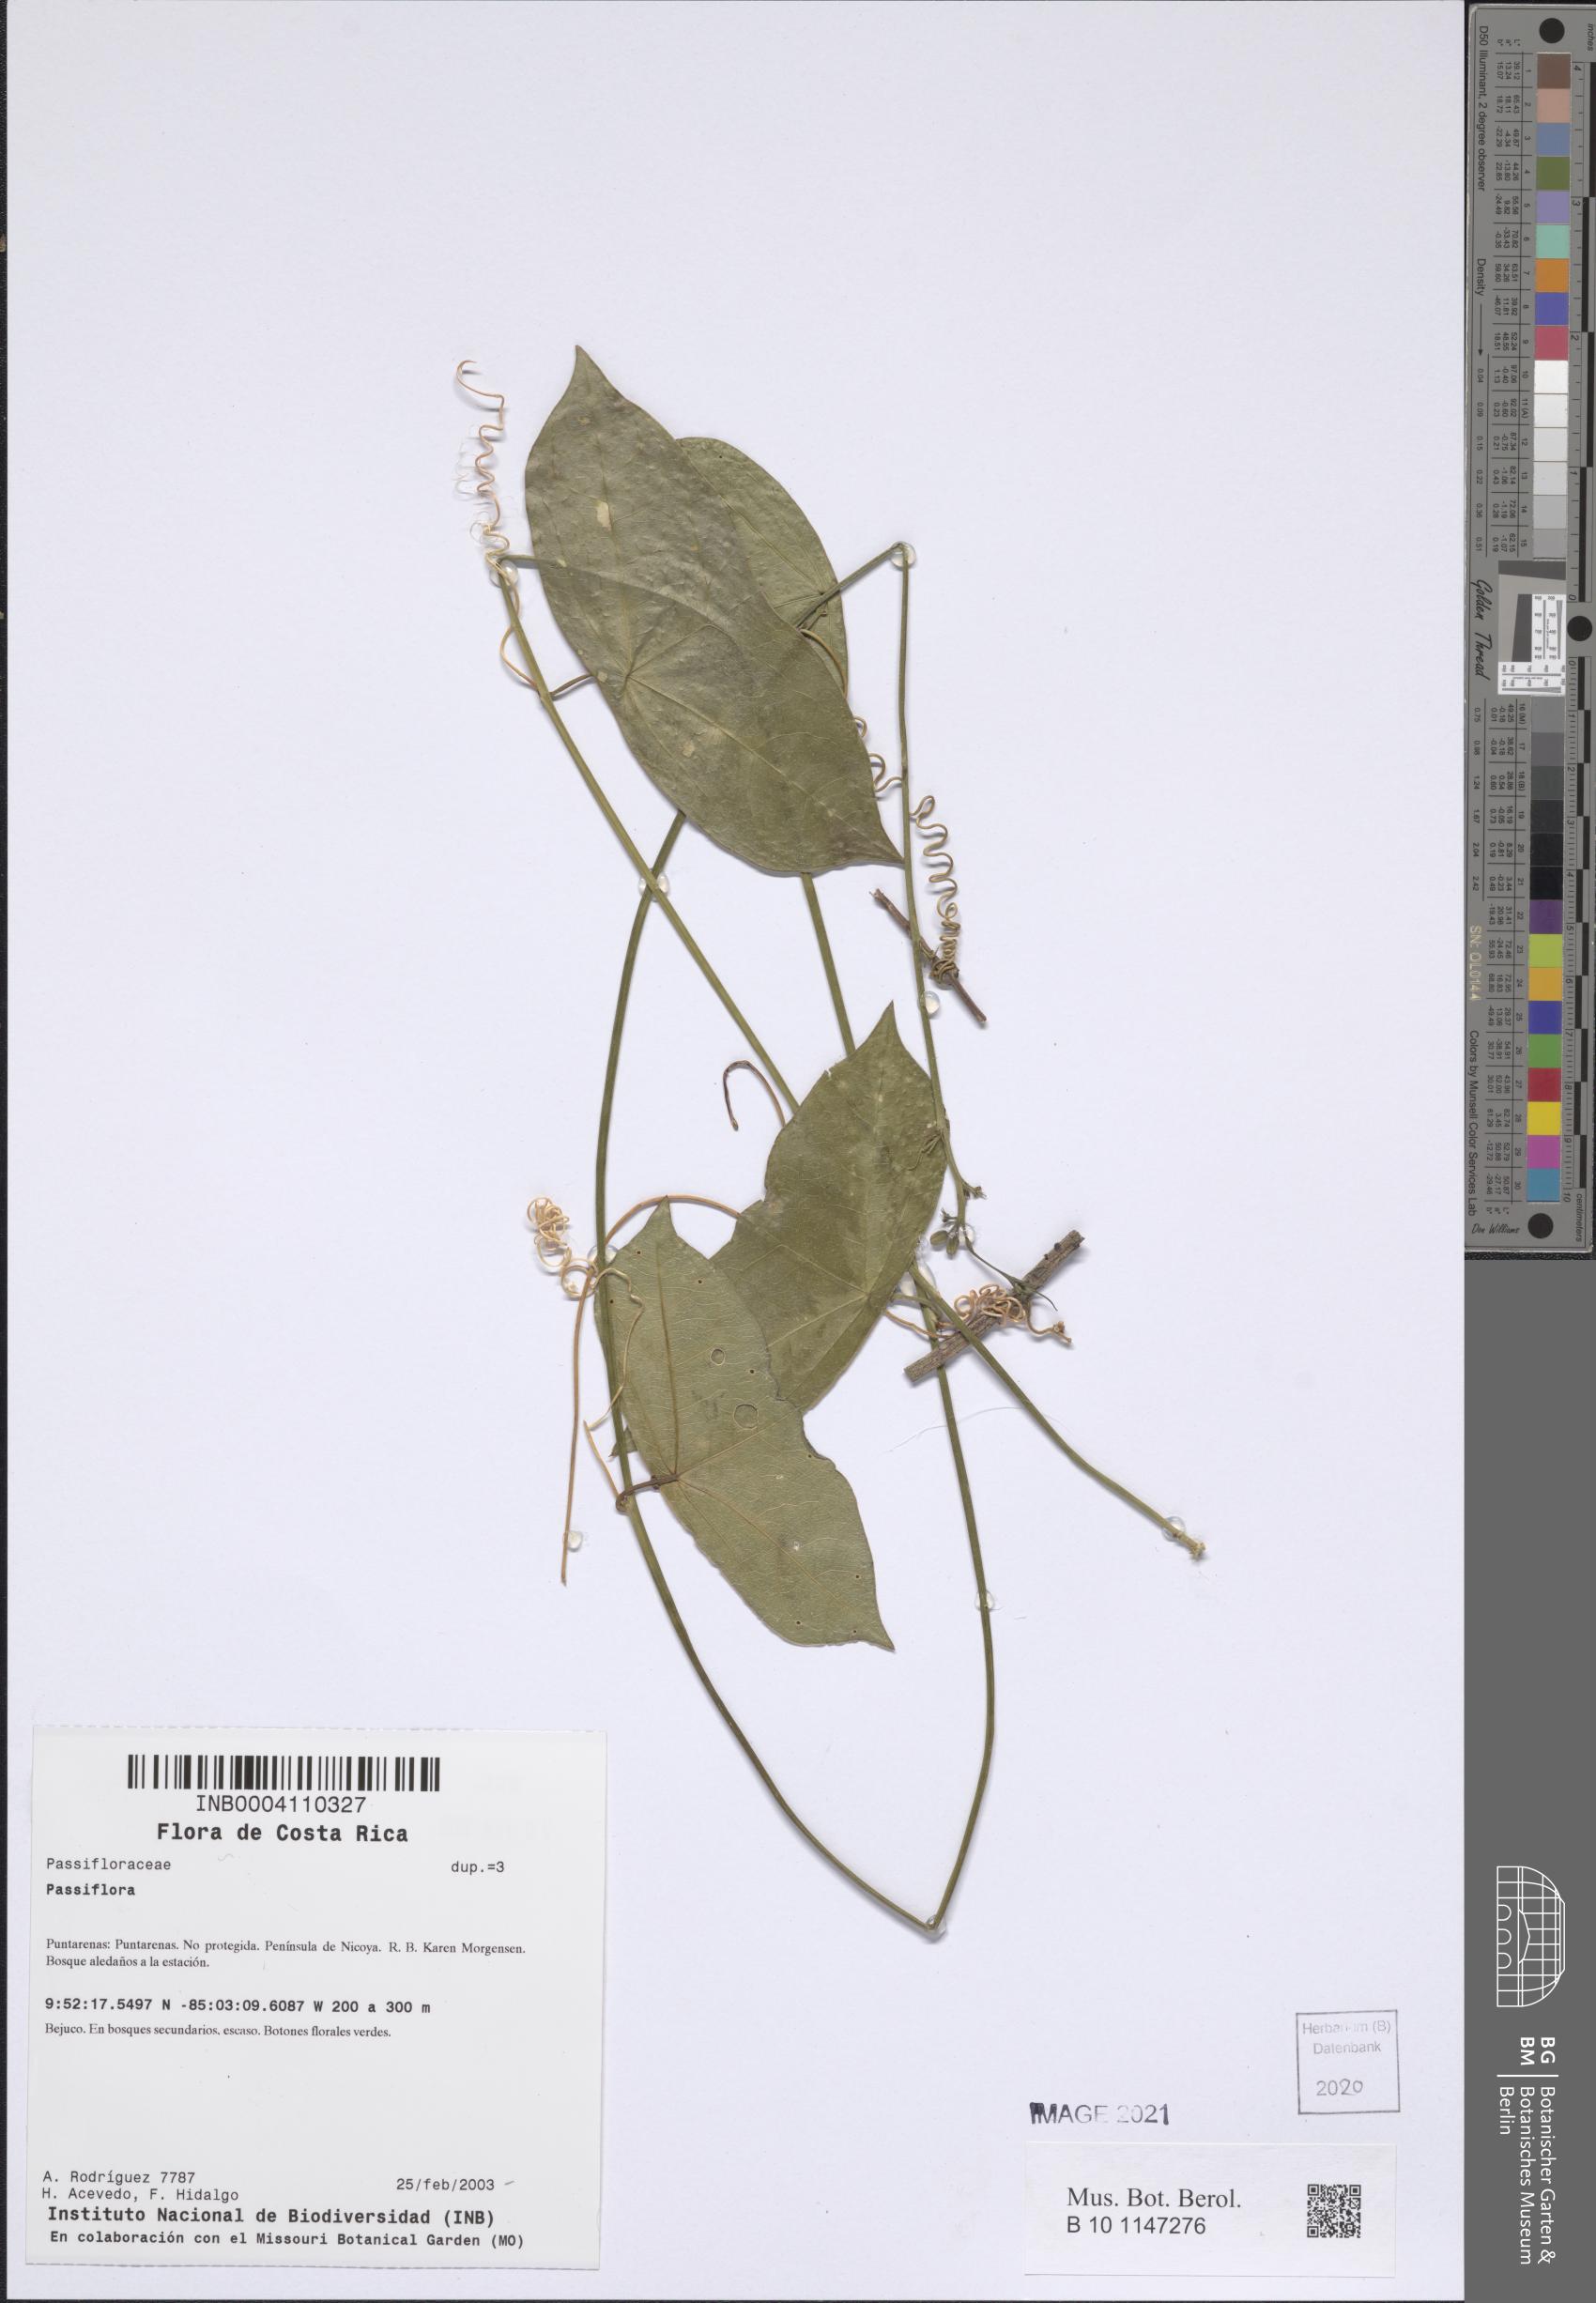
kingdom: Plantae
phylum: Tracheophyta
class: Magnoliopsida
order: Malpighiales
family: Passifloraceae
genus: Passiflora
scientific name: Passiflora
